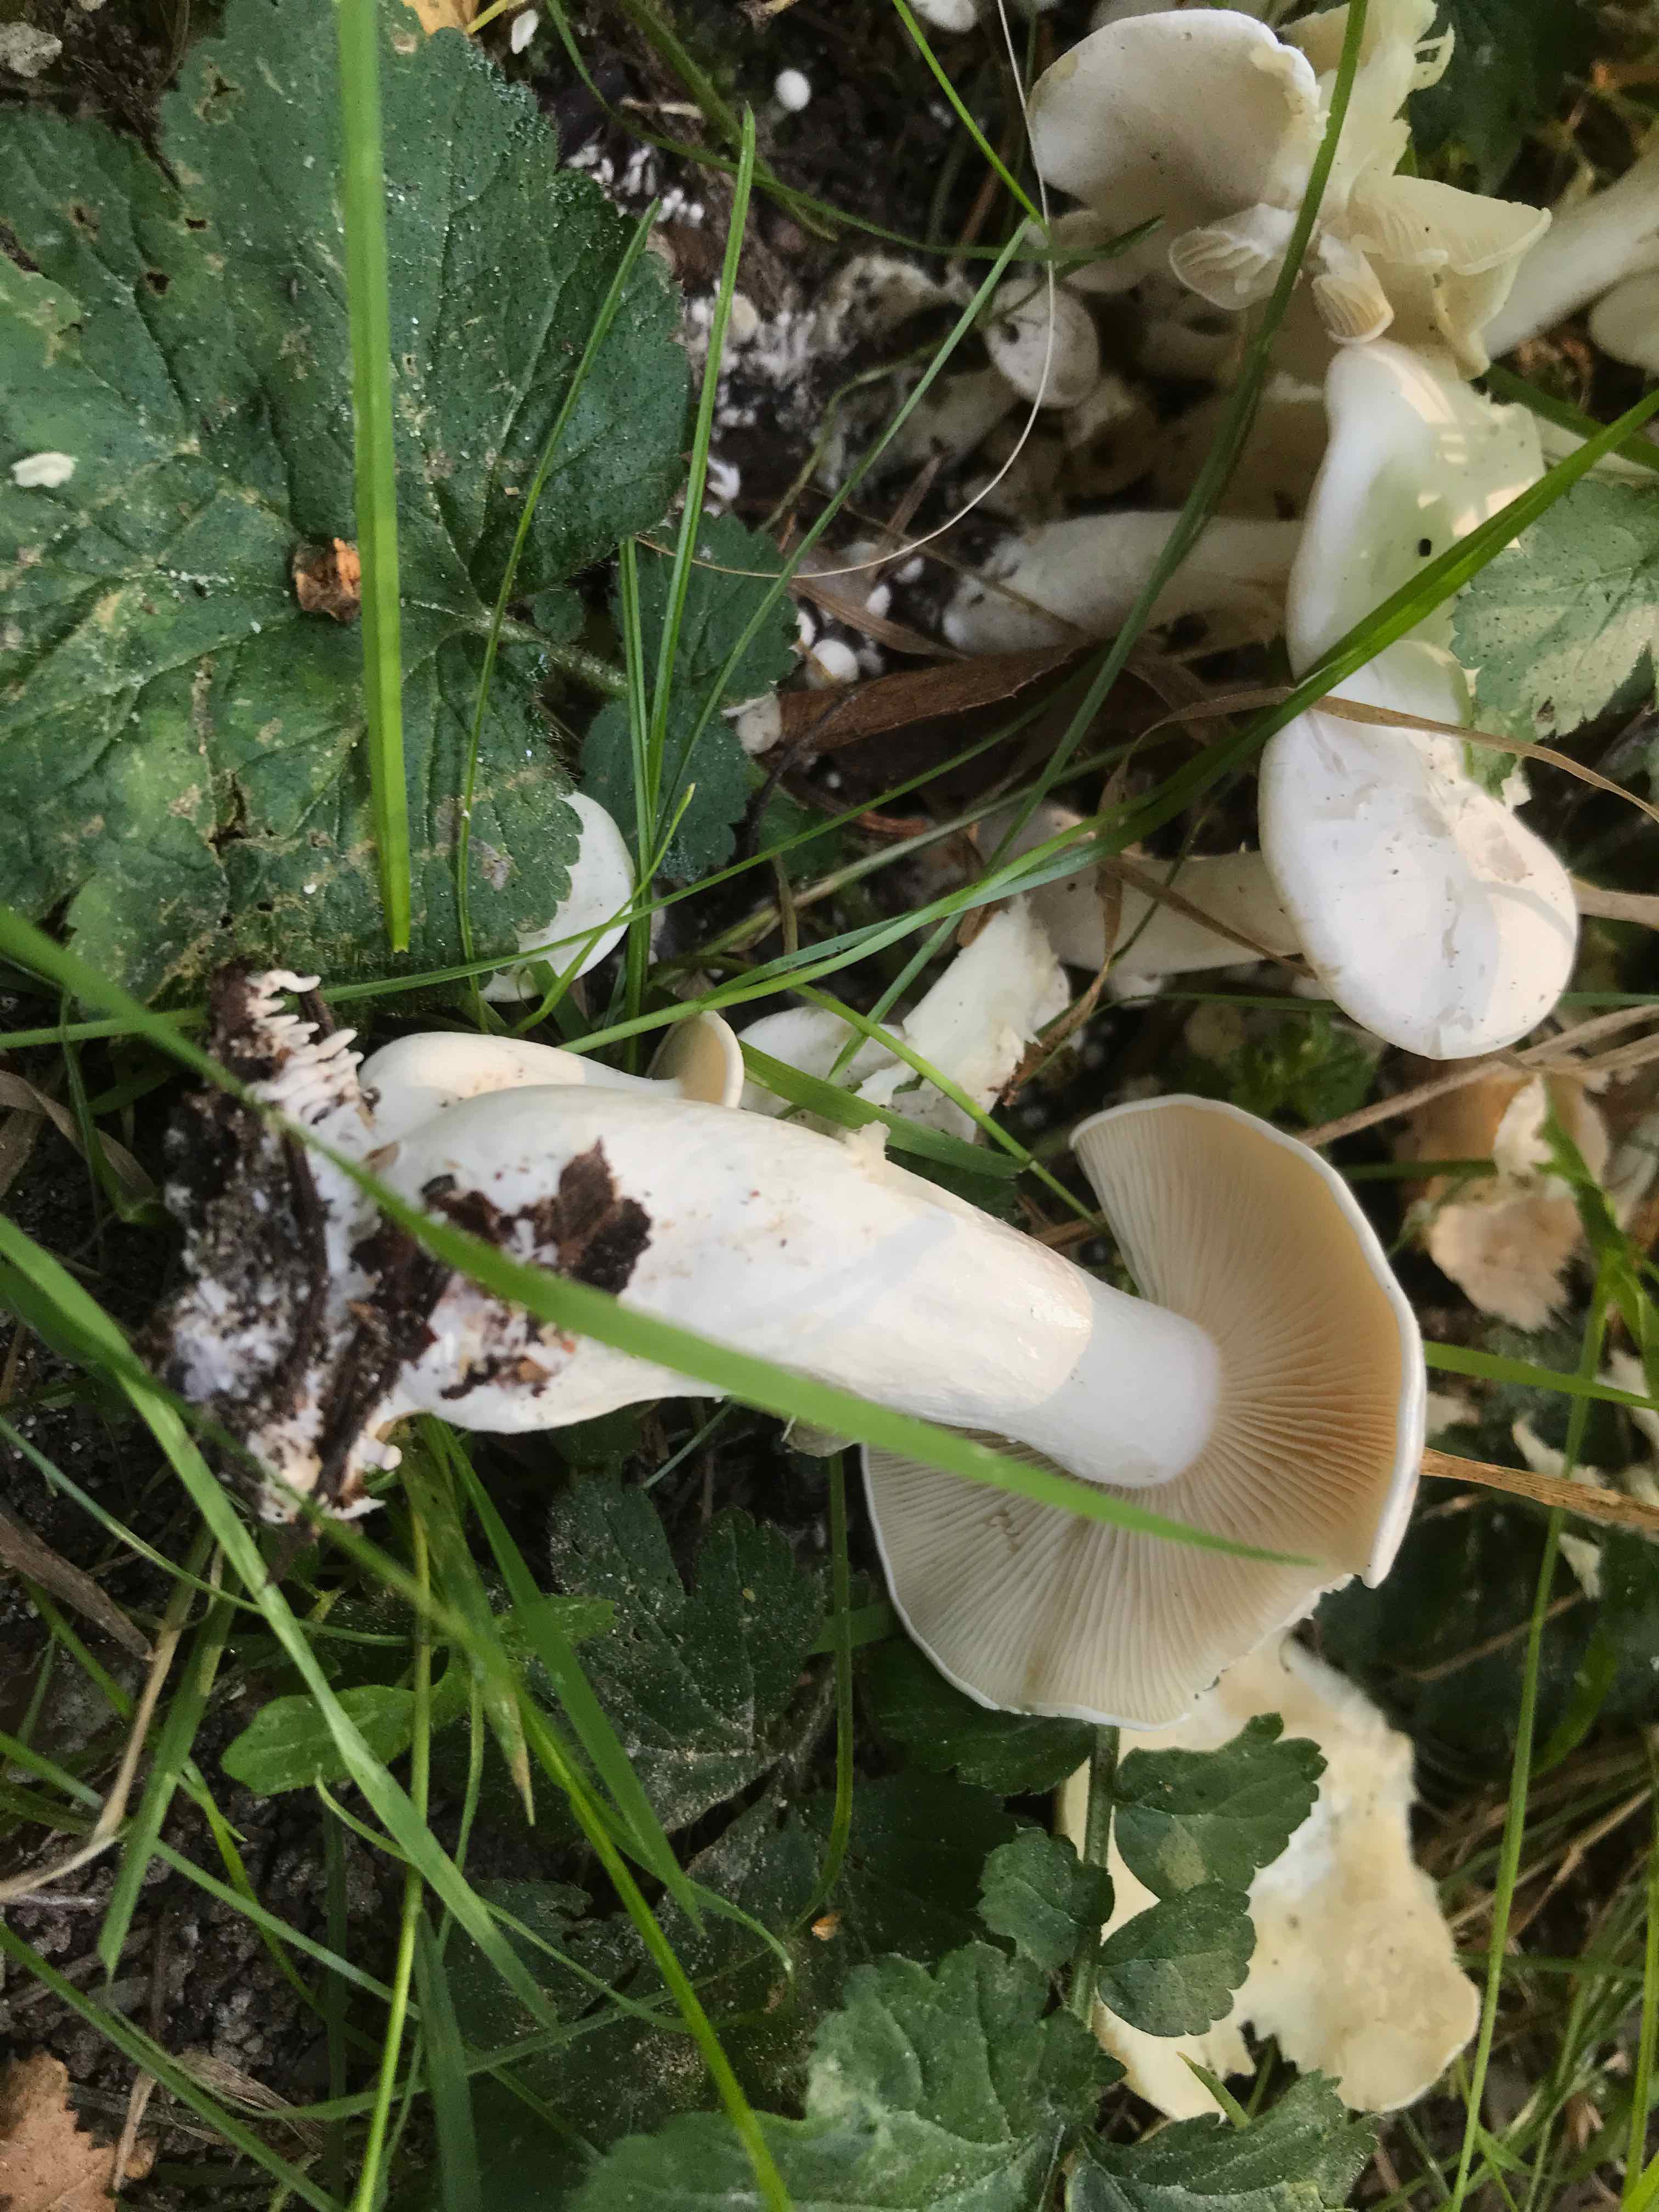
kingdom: Fungi
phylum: Basidiomycota
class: Agaricomycetes
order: Agaricales
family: Tricholomataceae
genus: Leucocybe
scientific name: Leucocybe connata
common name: knippe-tragthat
